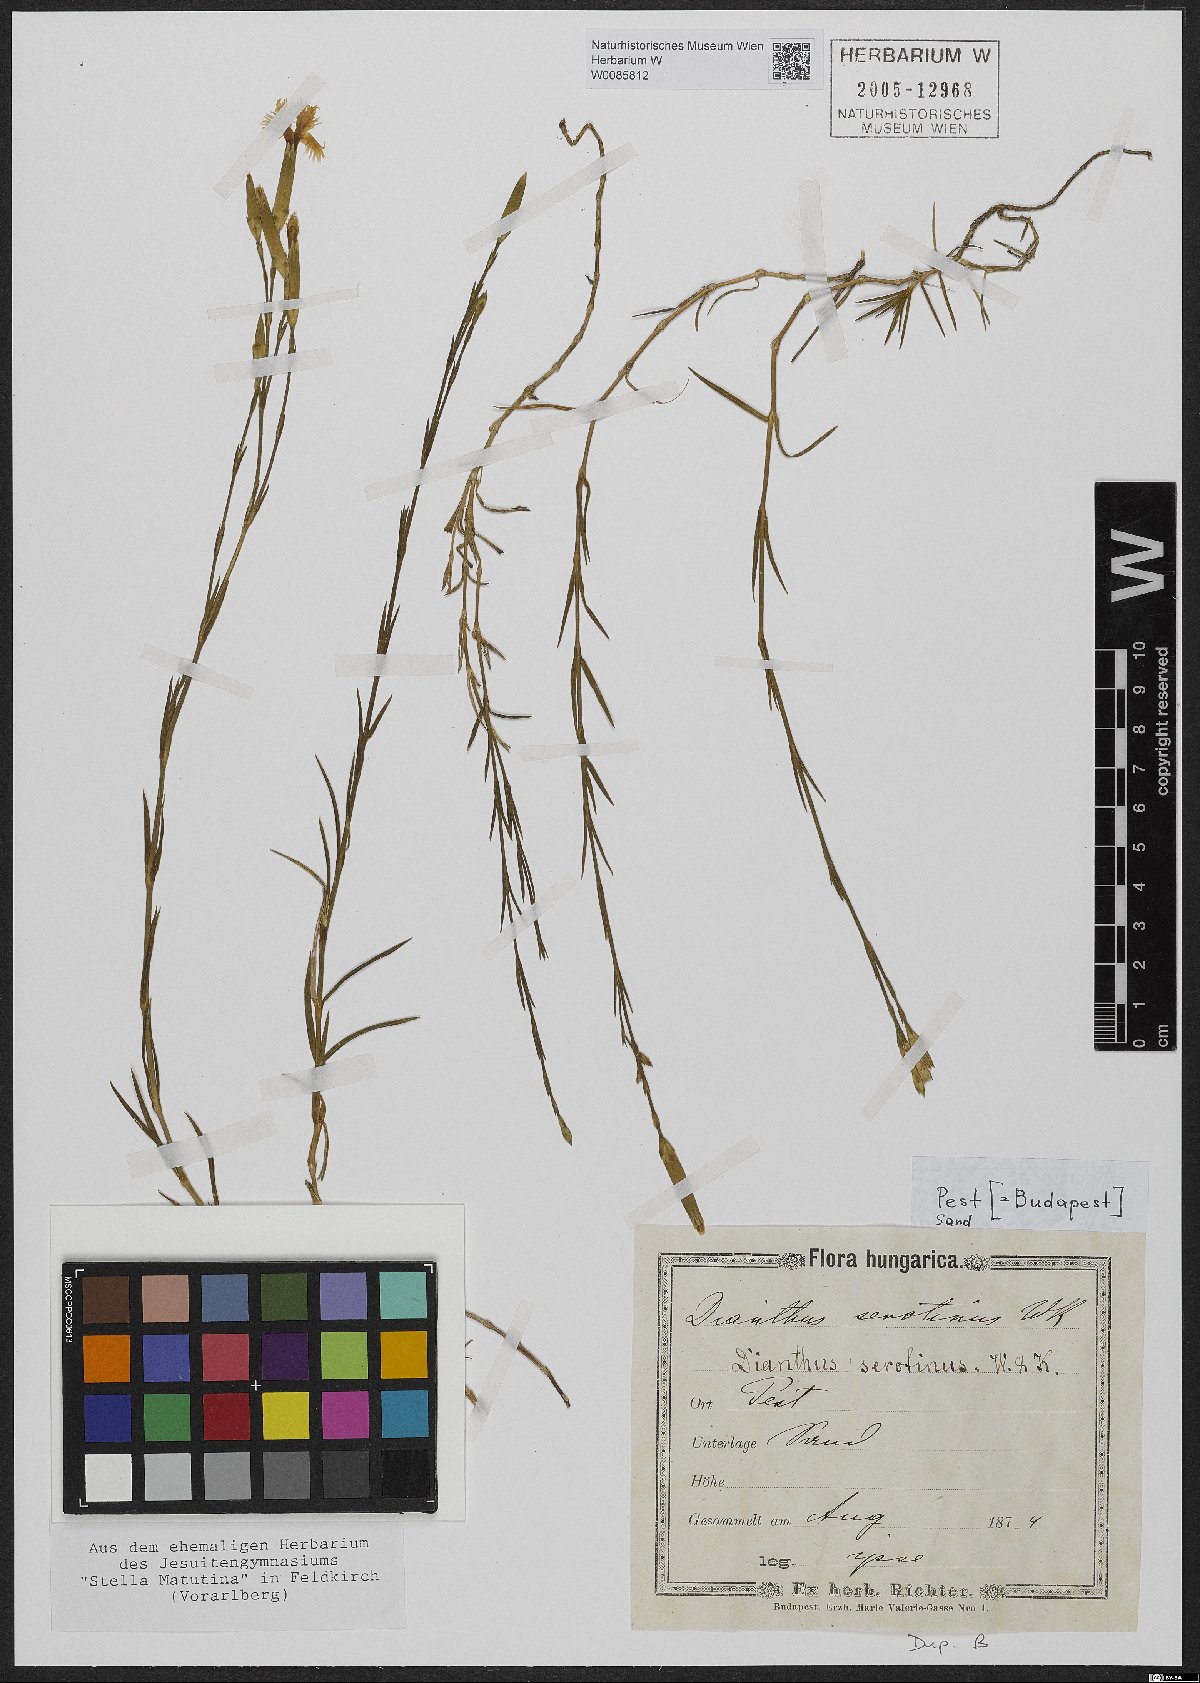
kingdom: Plantae
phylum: Tracheophyta
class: Magnoliopsida
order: Caryophyllales
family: Caryophyllaceae
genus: Dianthus
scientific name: Dianthus serotinus
